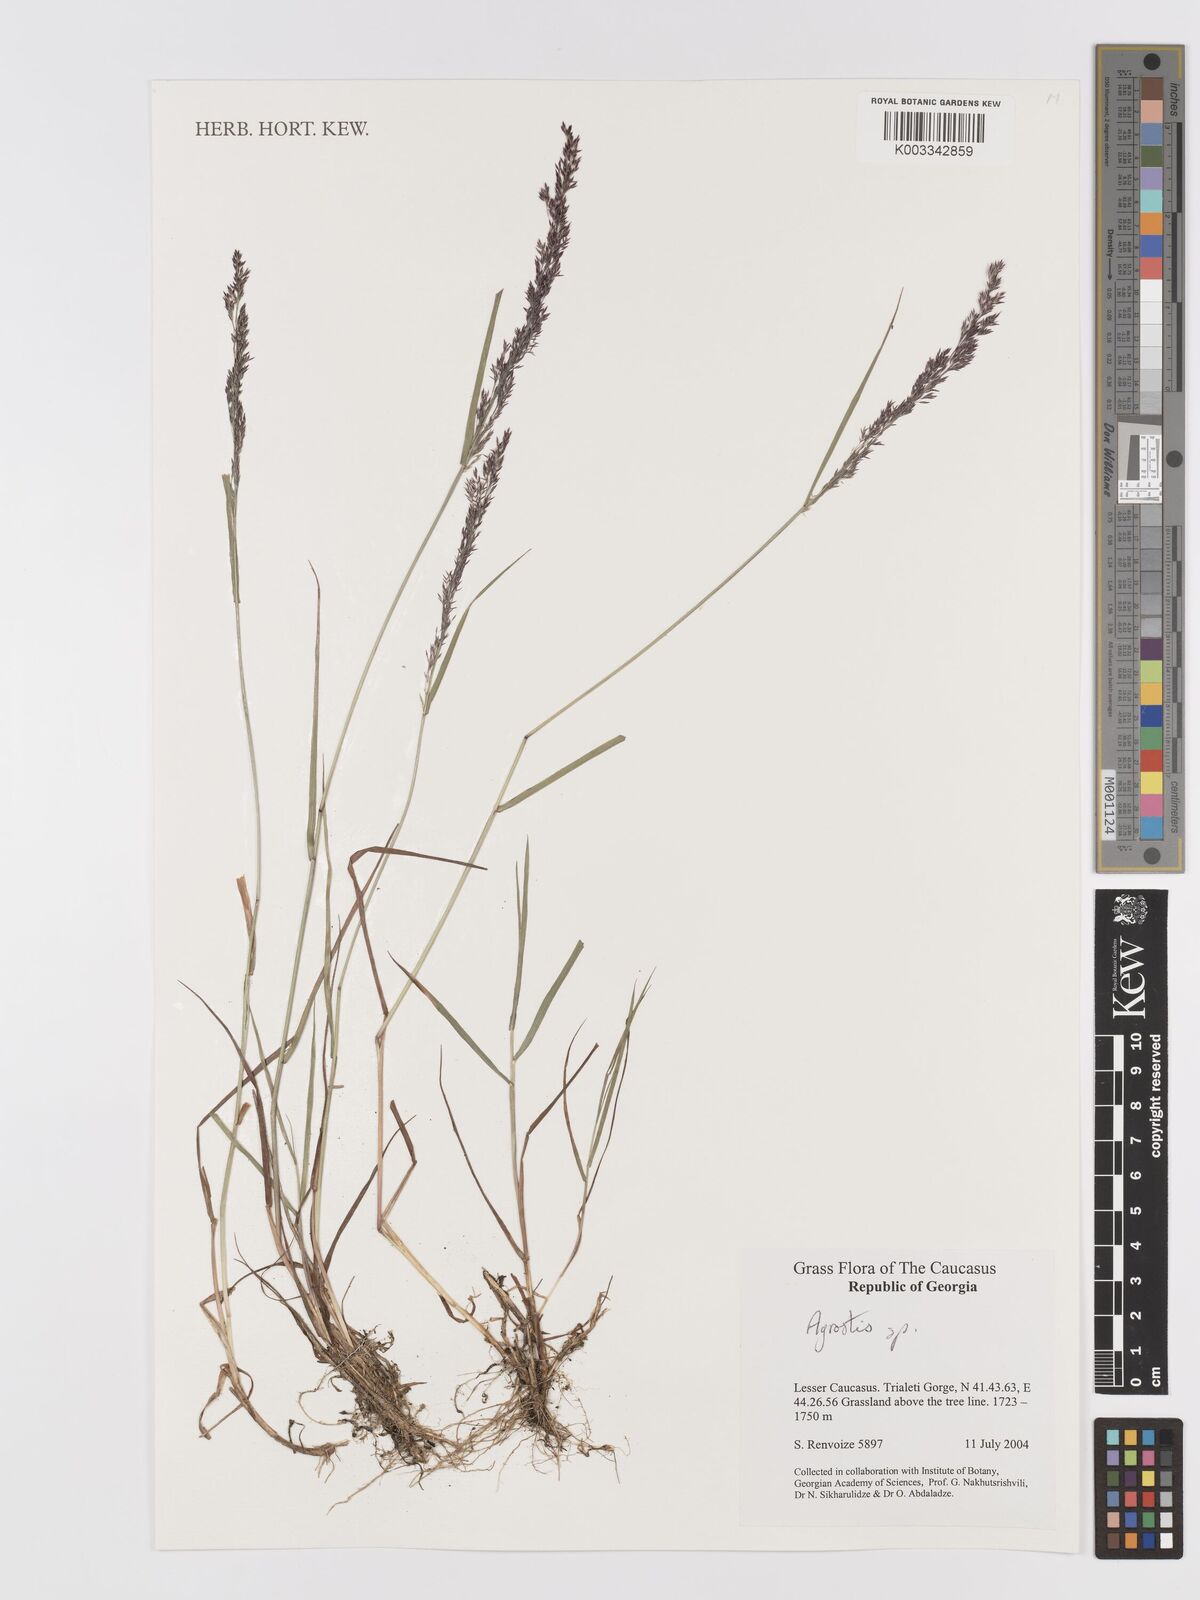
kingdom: Plantae
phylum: Tracheophyta
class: Liliopsida
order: Poales
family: Poaceae
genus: Agrostis
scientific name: Agrostis
